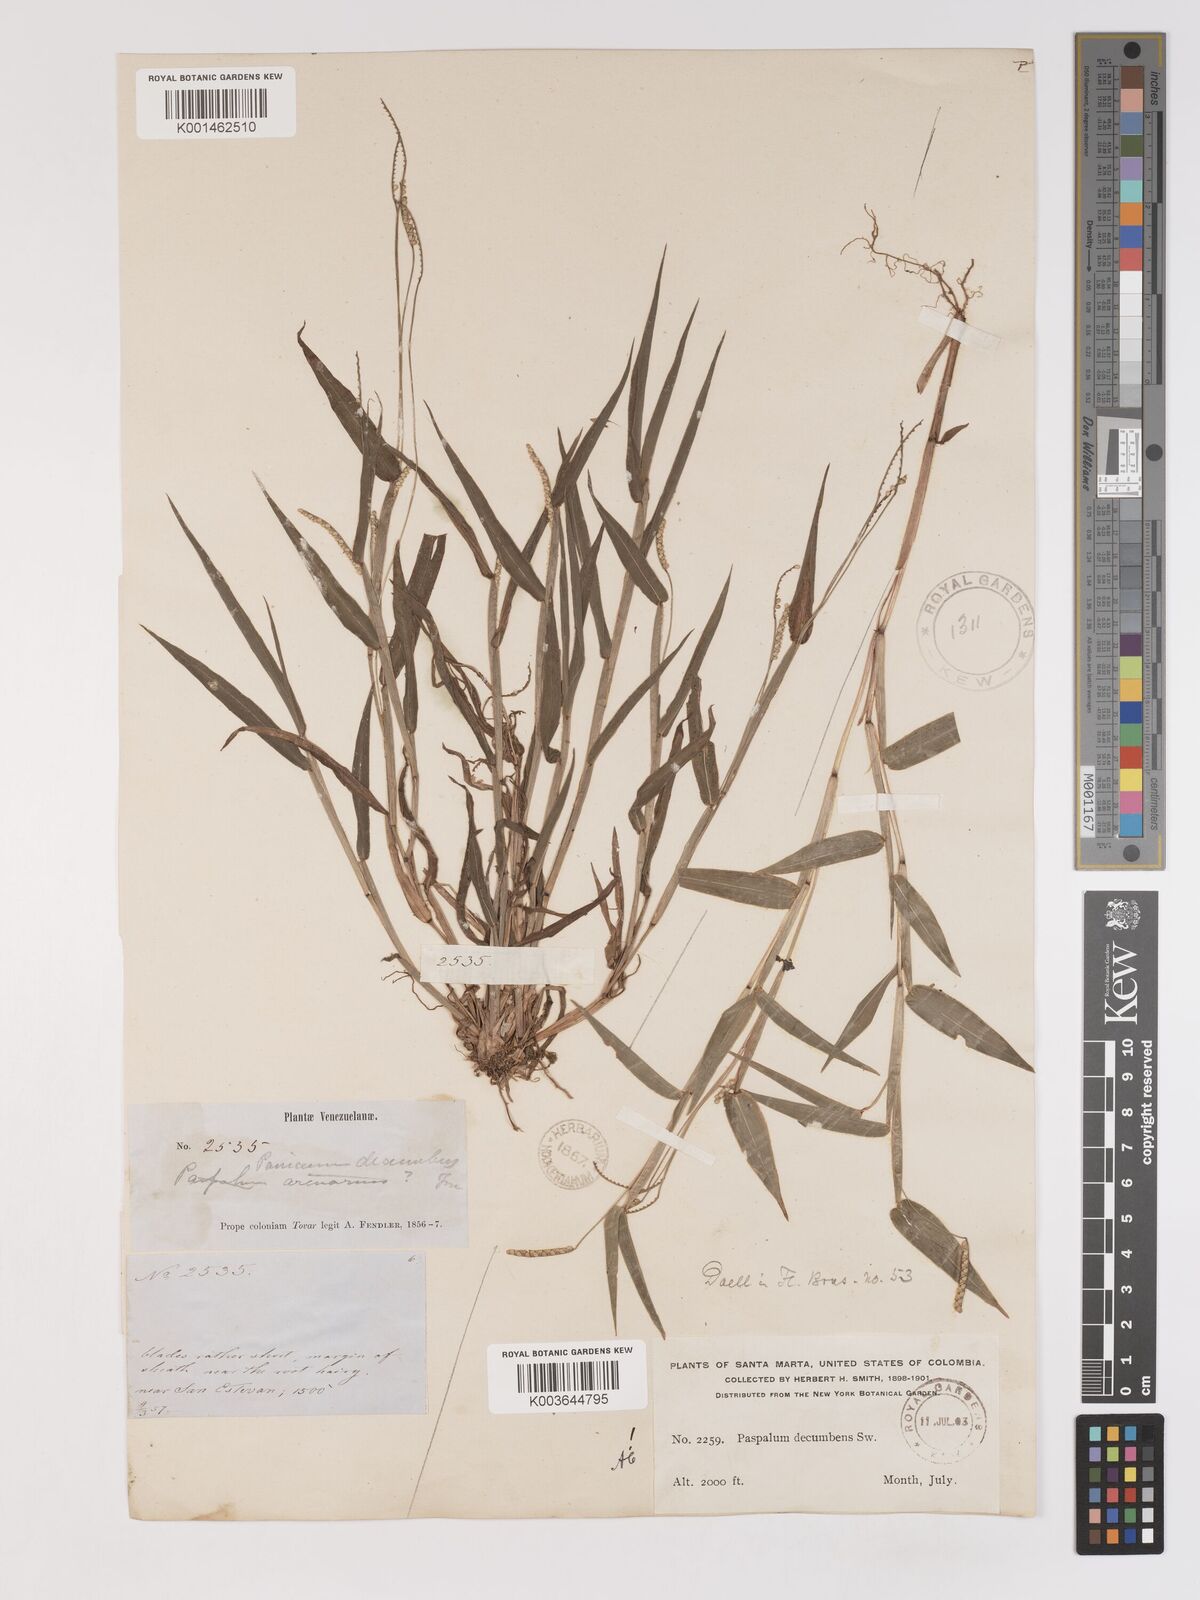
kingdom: Plantae
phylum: Tracheophyta
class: Liliopsida
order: Poales
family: Poaceae
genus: Paspalum
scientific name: Paspalum decumbens
